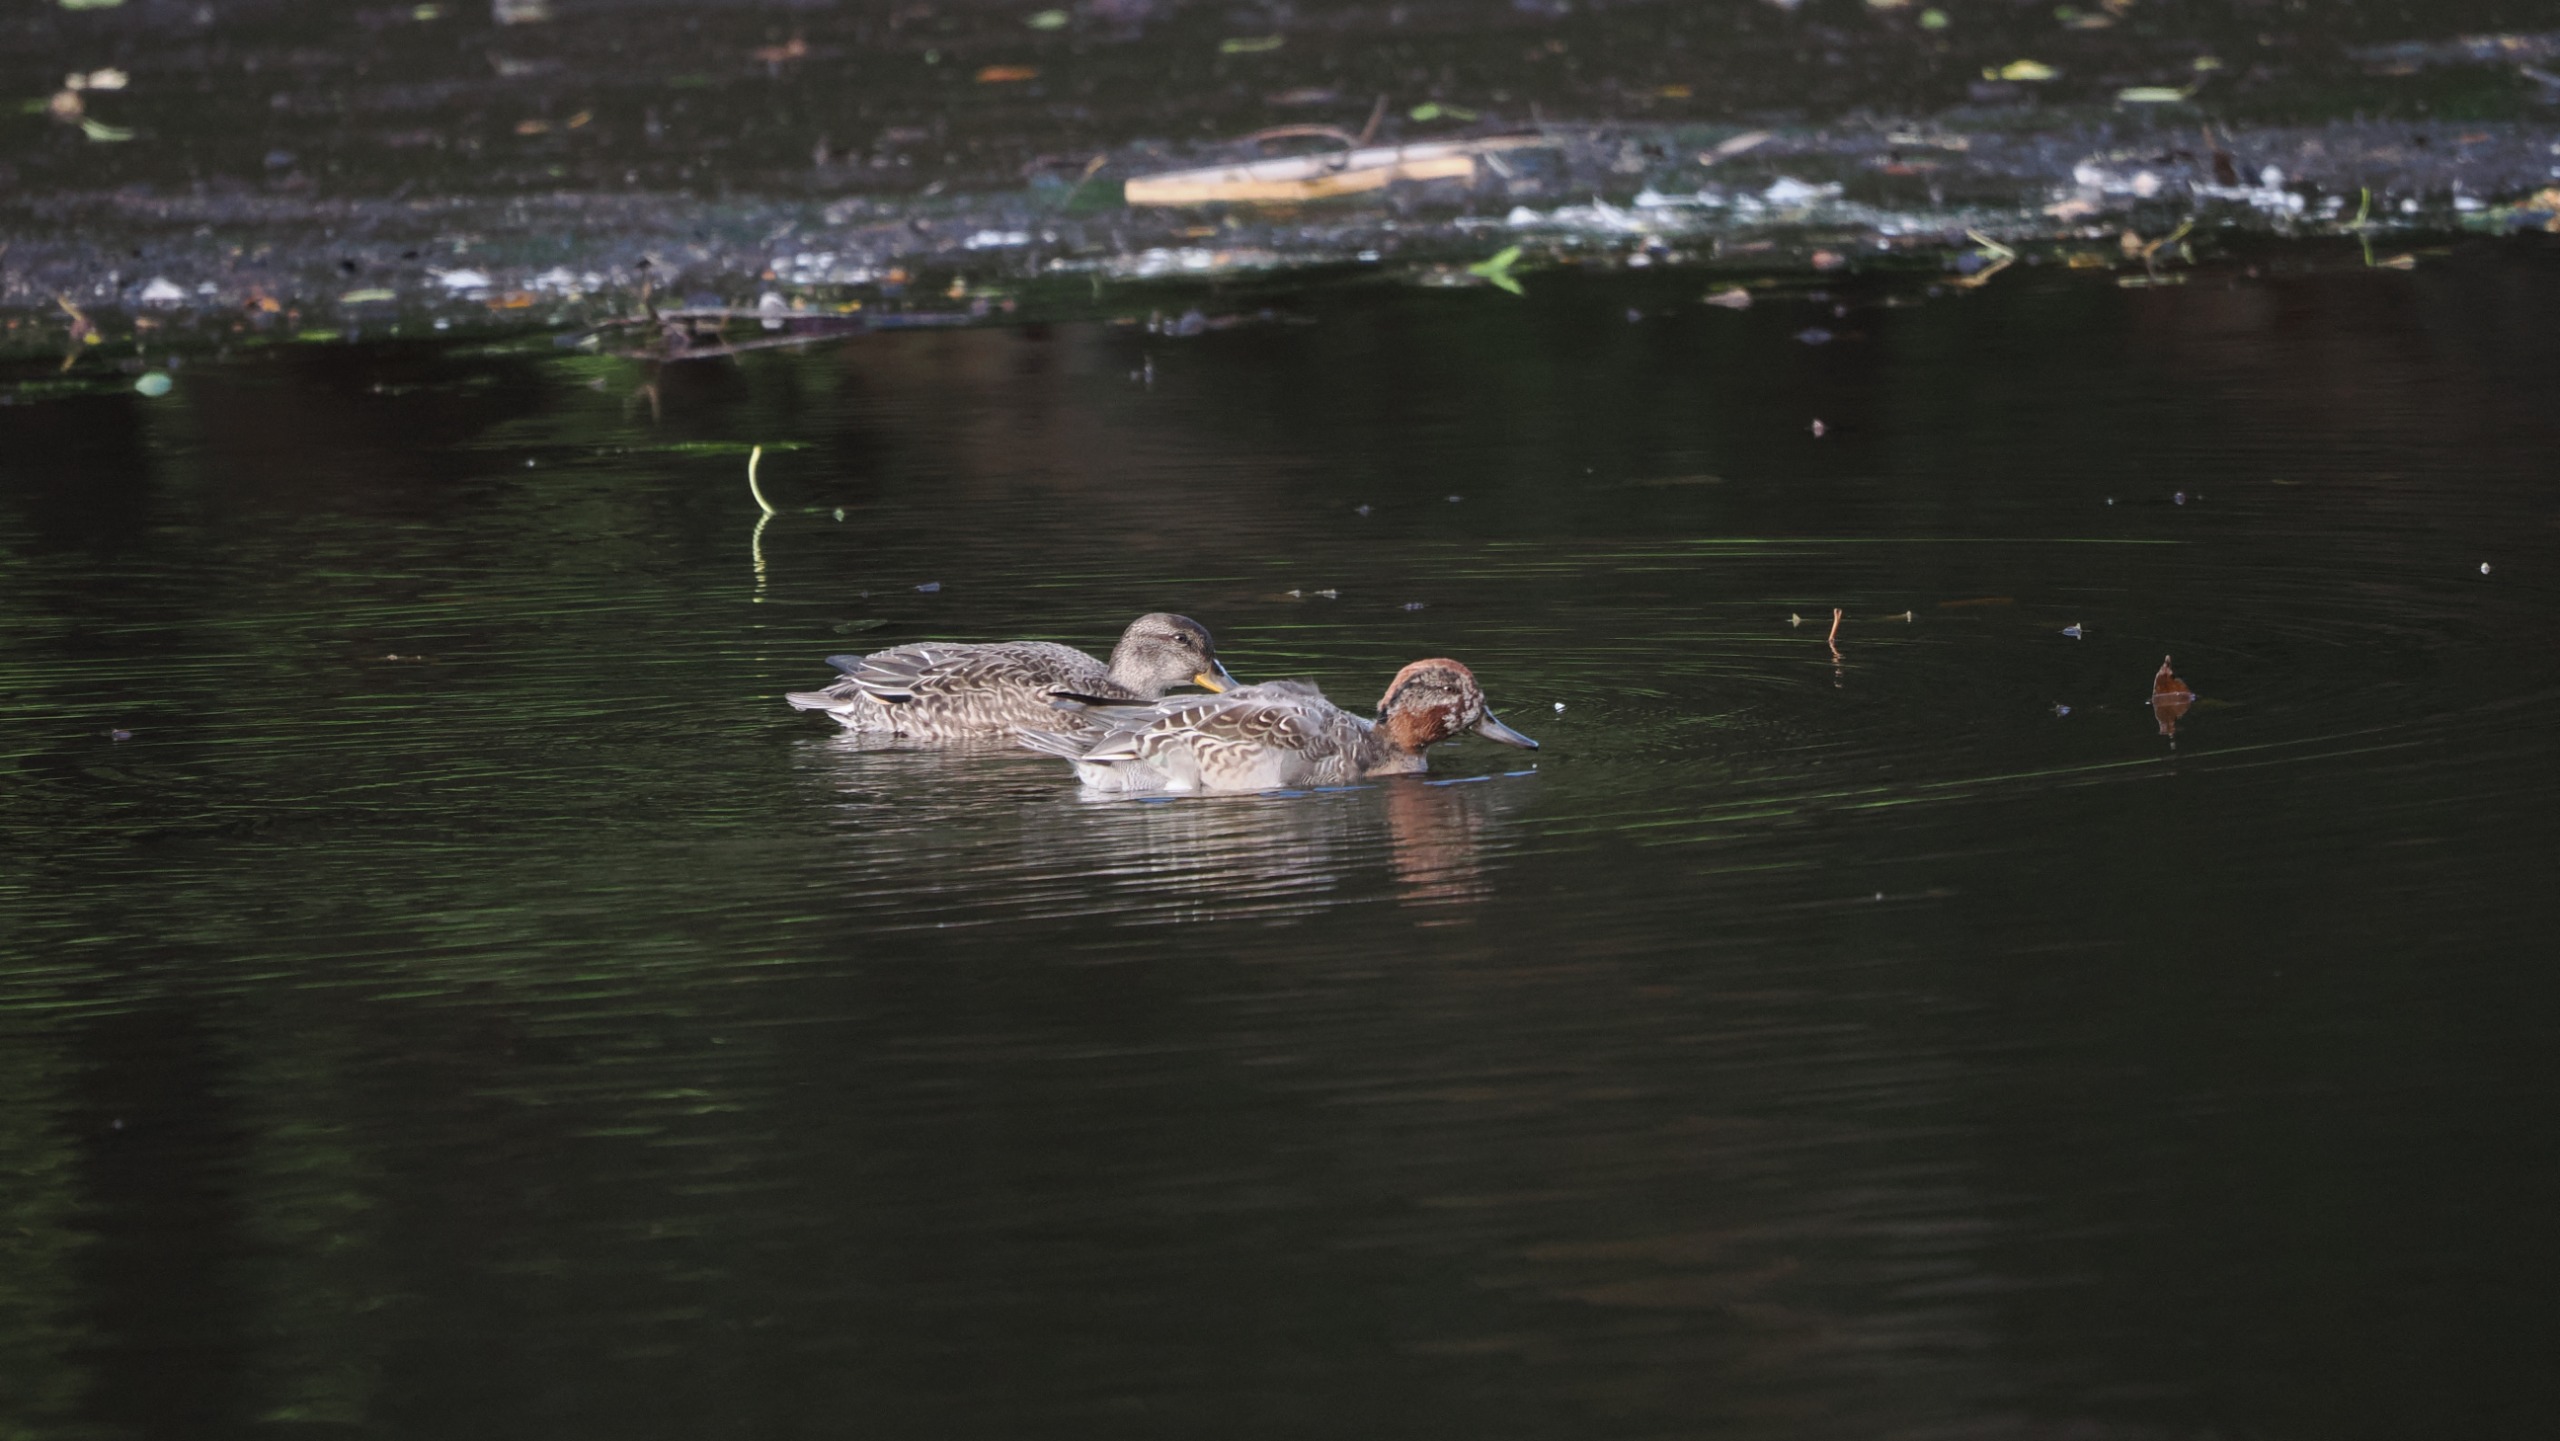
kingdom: Animalia
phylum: Chordata
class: Aves
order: Anseriformes
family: Anatidae
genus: Anas
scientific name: Anas crecca
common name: Krikand
